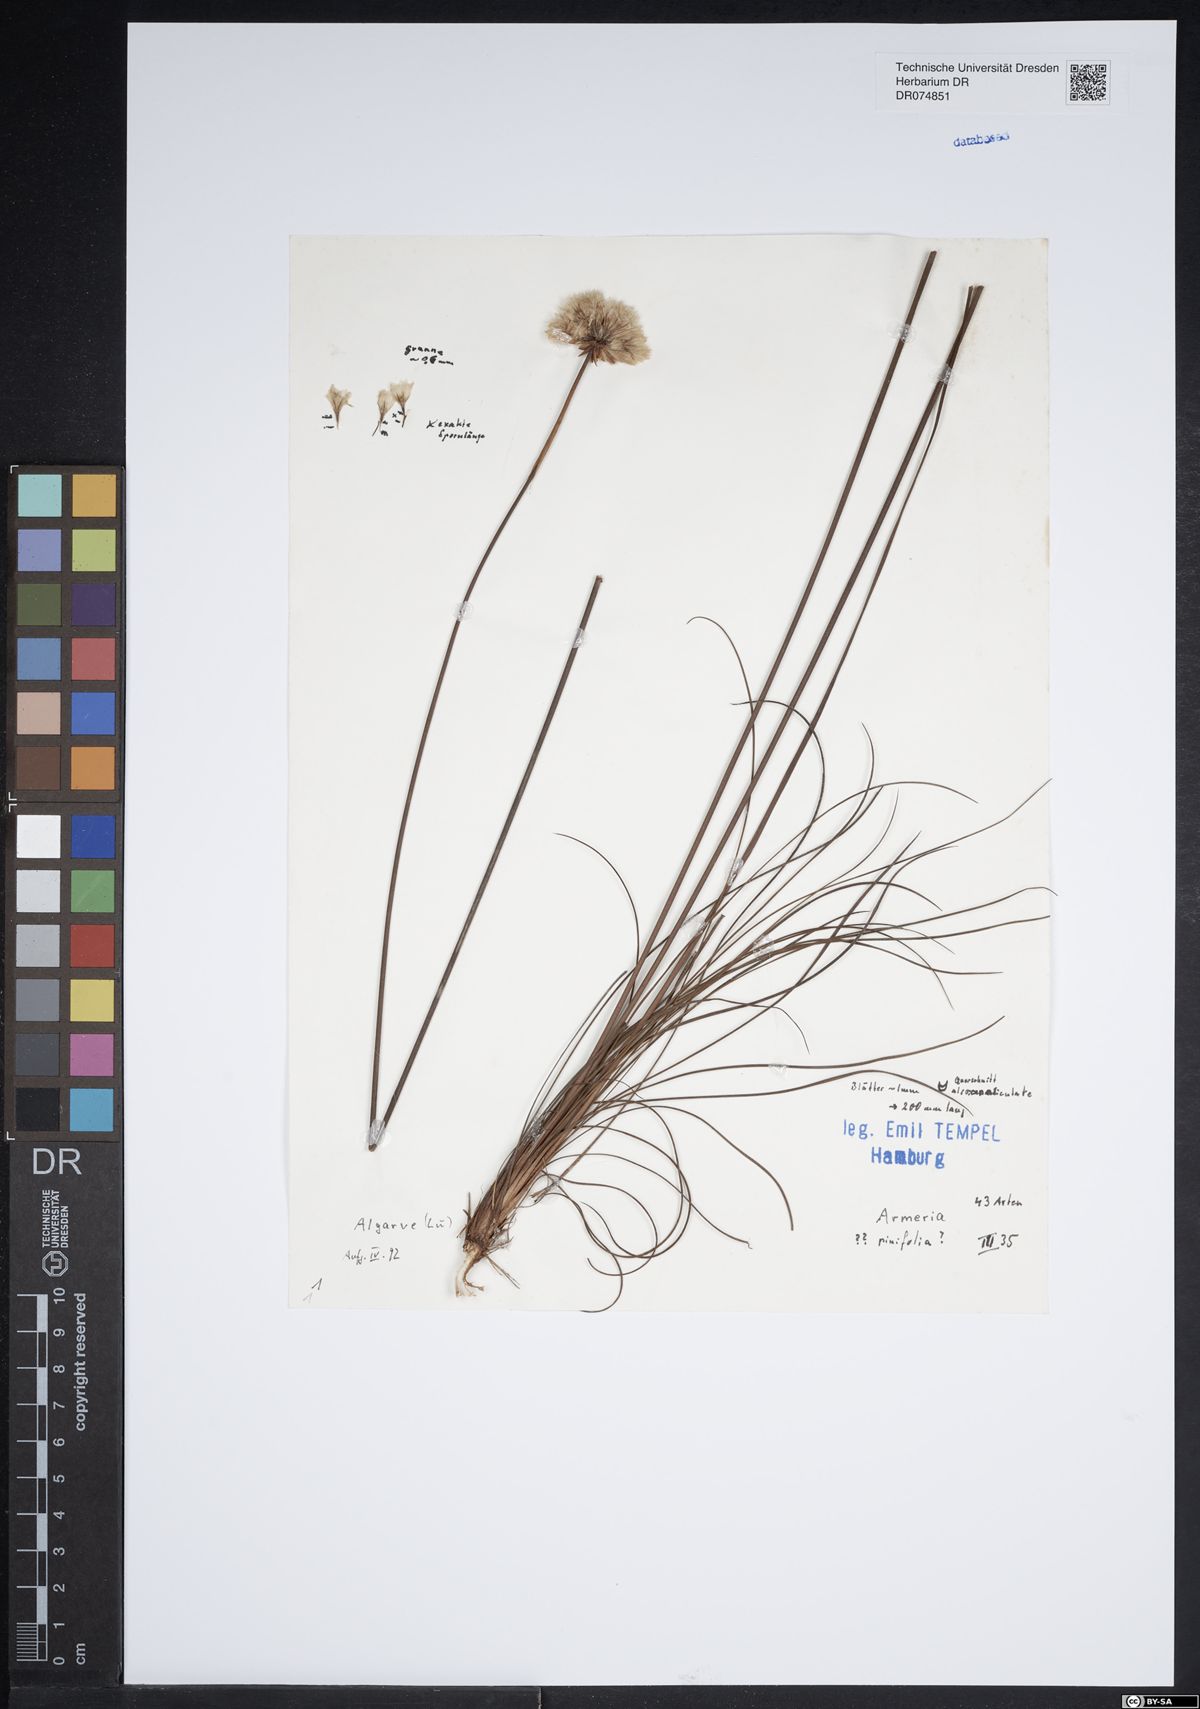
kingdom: Plantae
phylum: Tracheophyta
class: Magnoliopsida
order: Caryophyllales
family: Plumbaginaceae
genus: Armeria
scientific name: Armeria pinifolia
